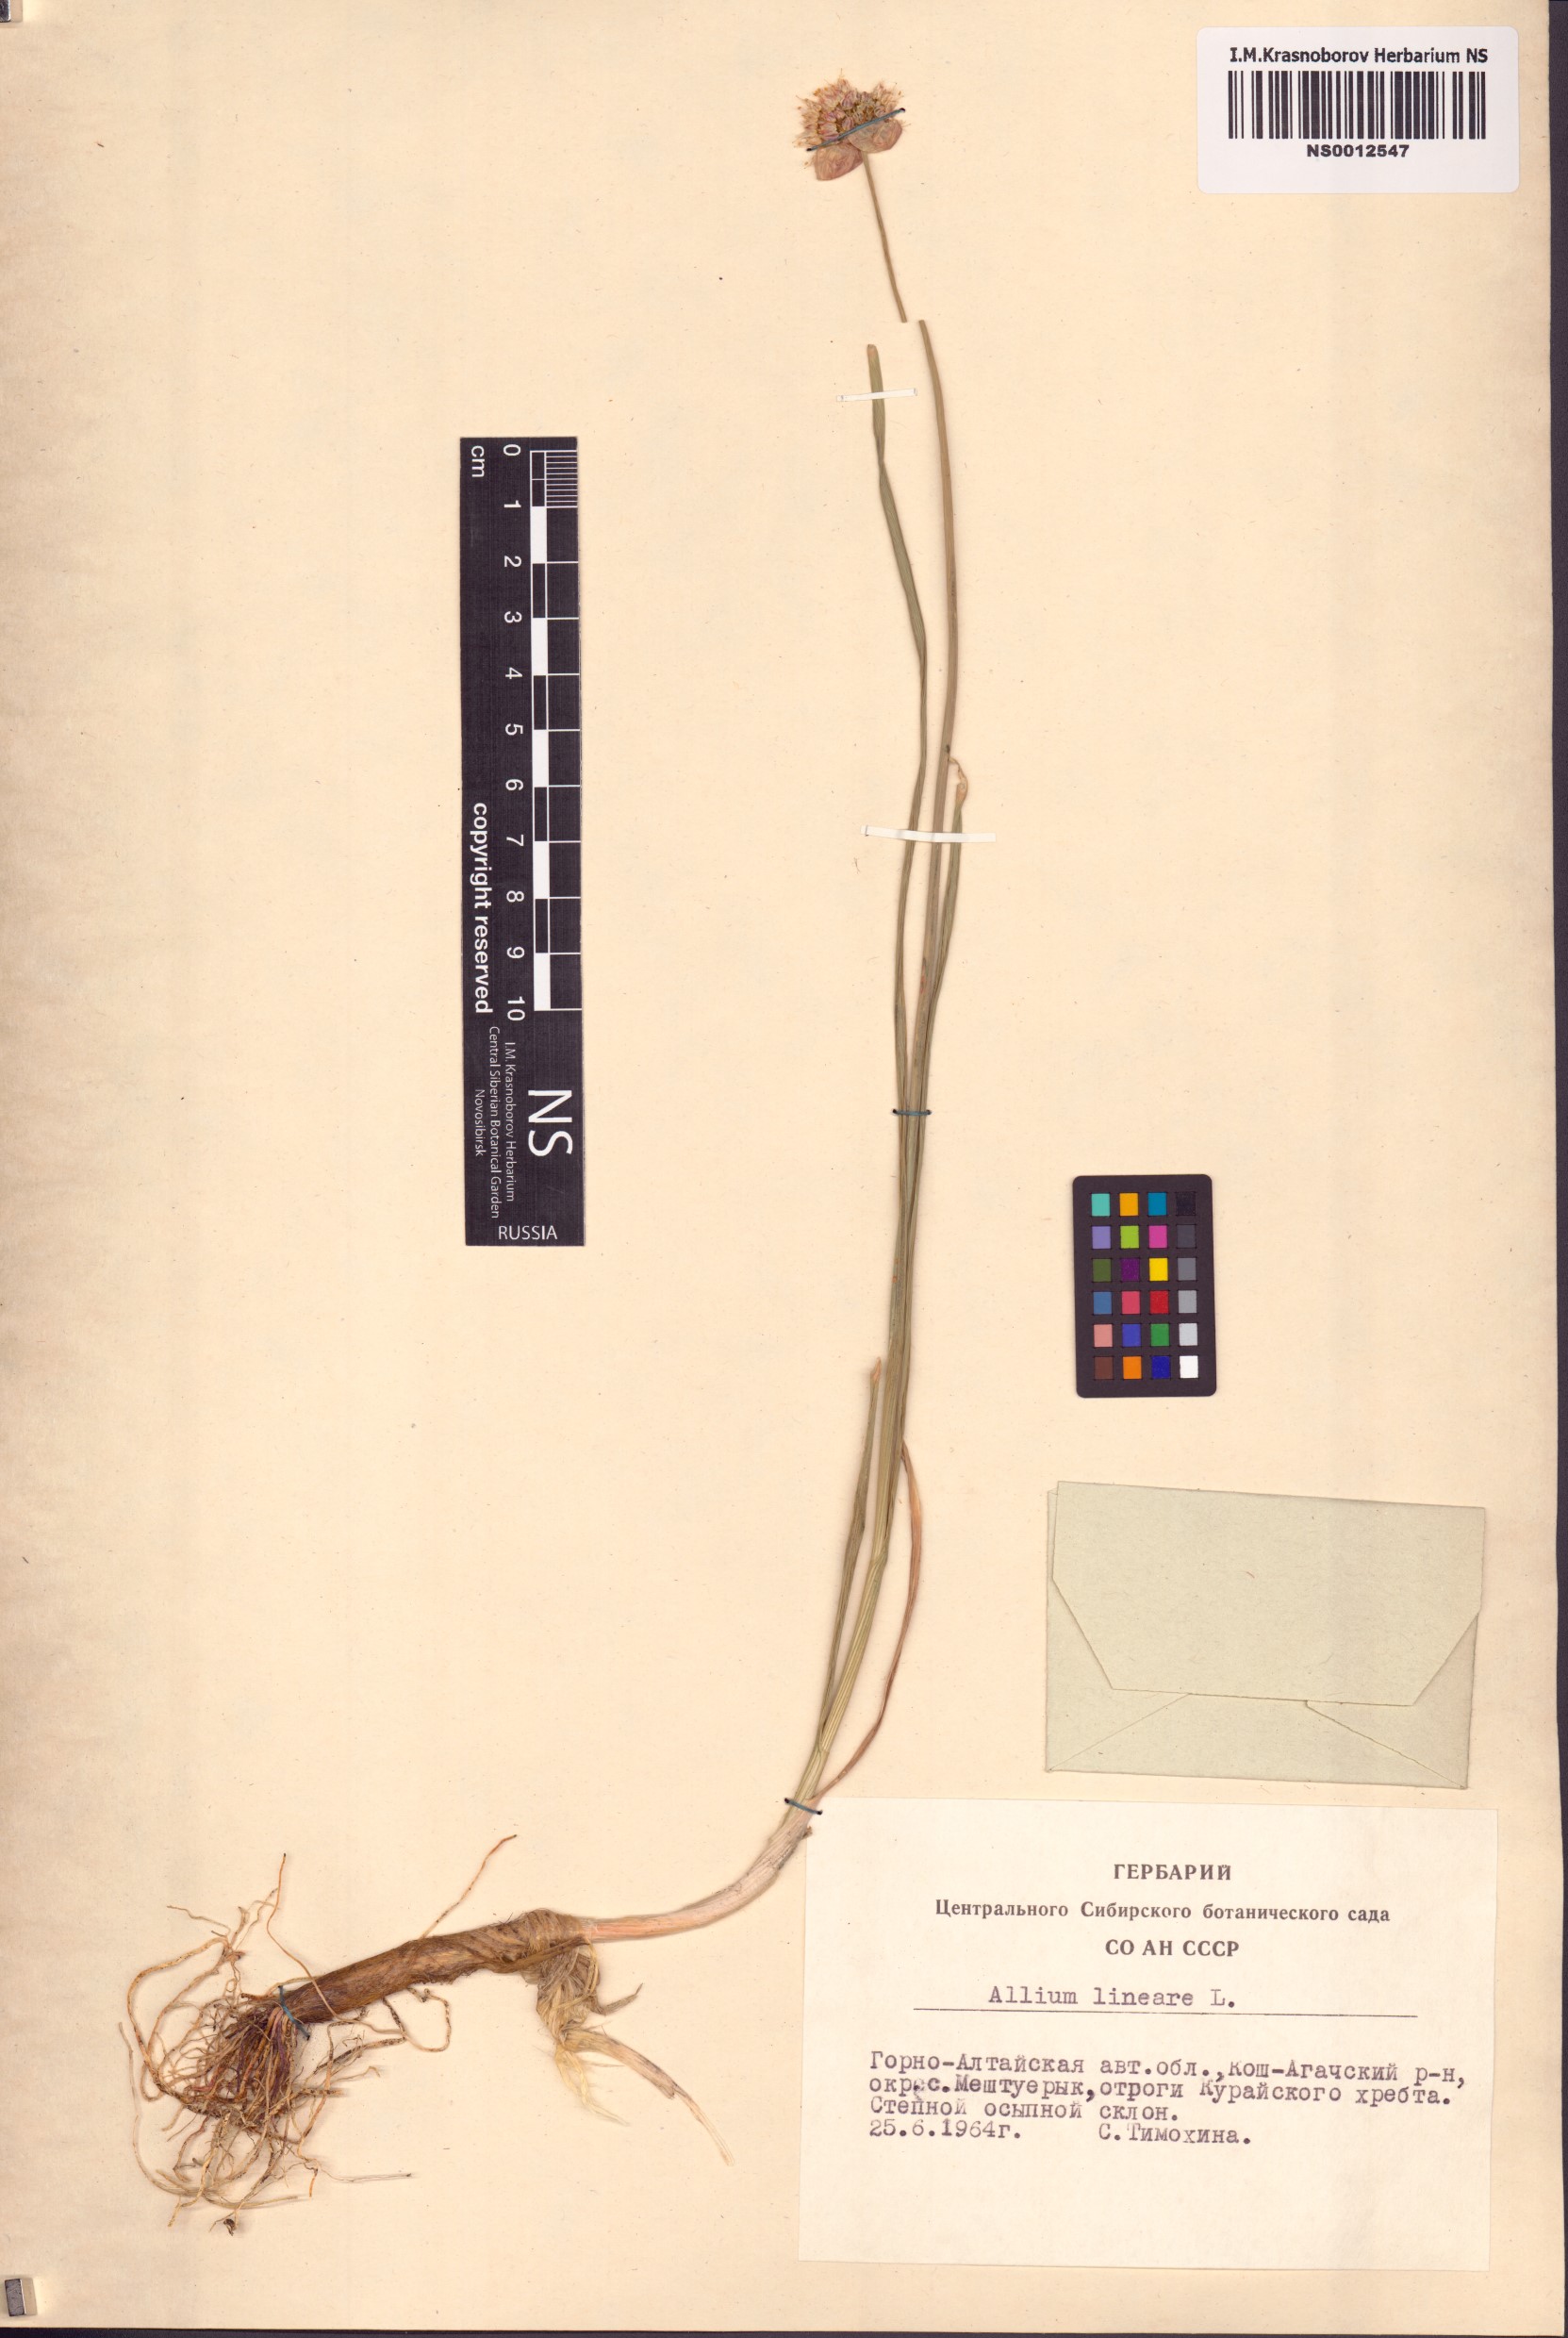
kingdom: Plantae
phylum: Tracheophyta
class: Liliopsida
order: Asparagales
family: Amaryllidaceae
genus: Allium
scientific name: Allium lineare
